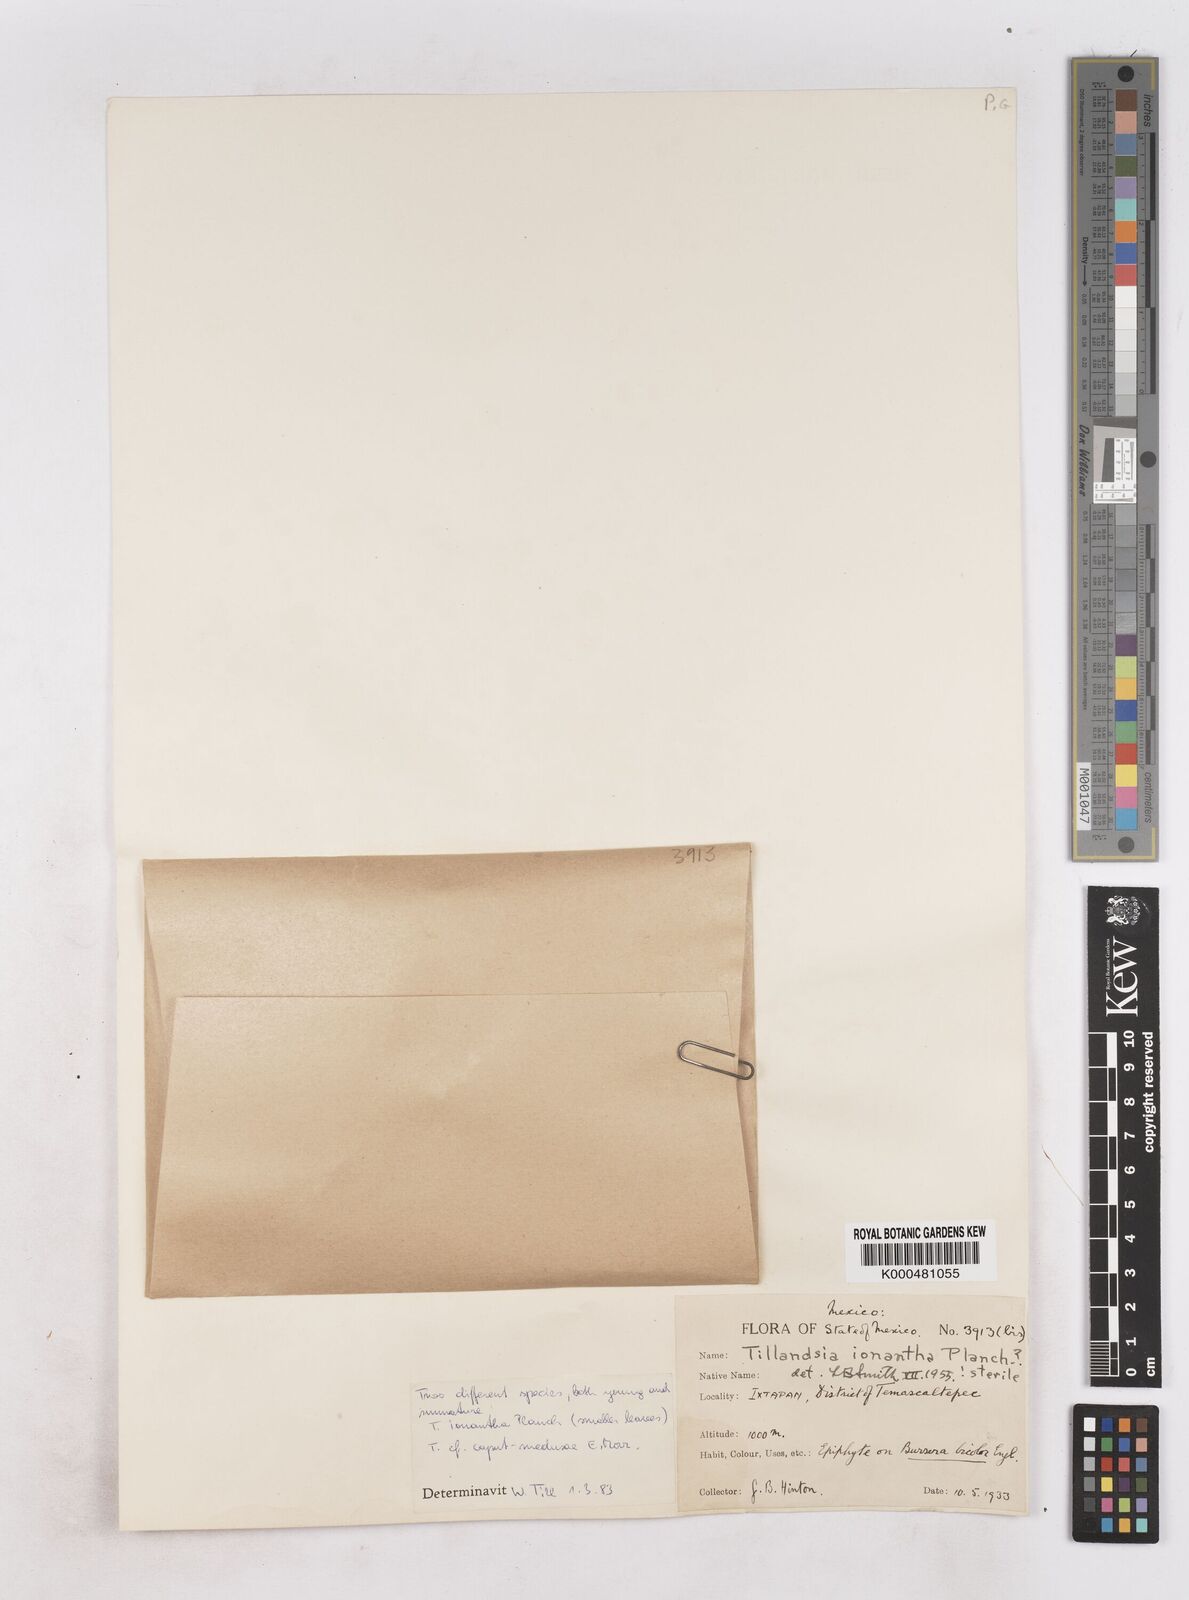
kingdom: Plantae
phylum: Tracheophyta
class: Liliopsida
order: Poales
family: Bromeliaceae
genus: Tillandsia
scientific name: Tillandsia ionantha
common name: Sky plant
